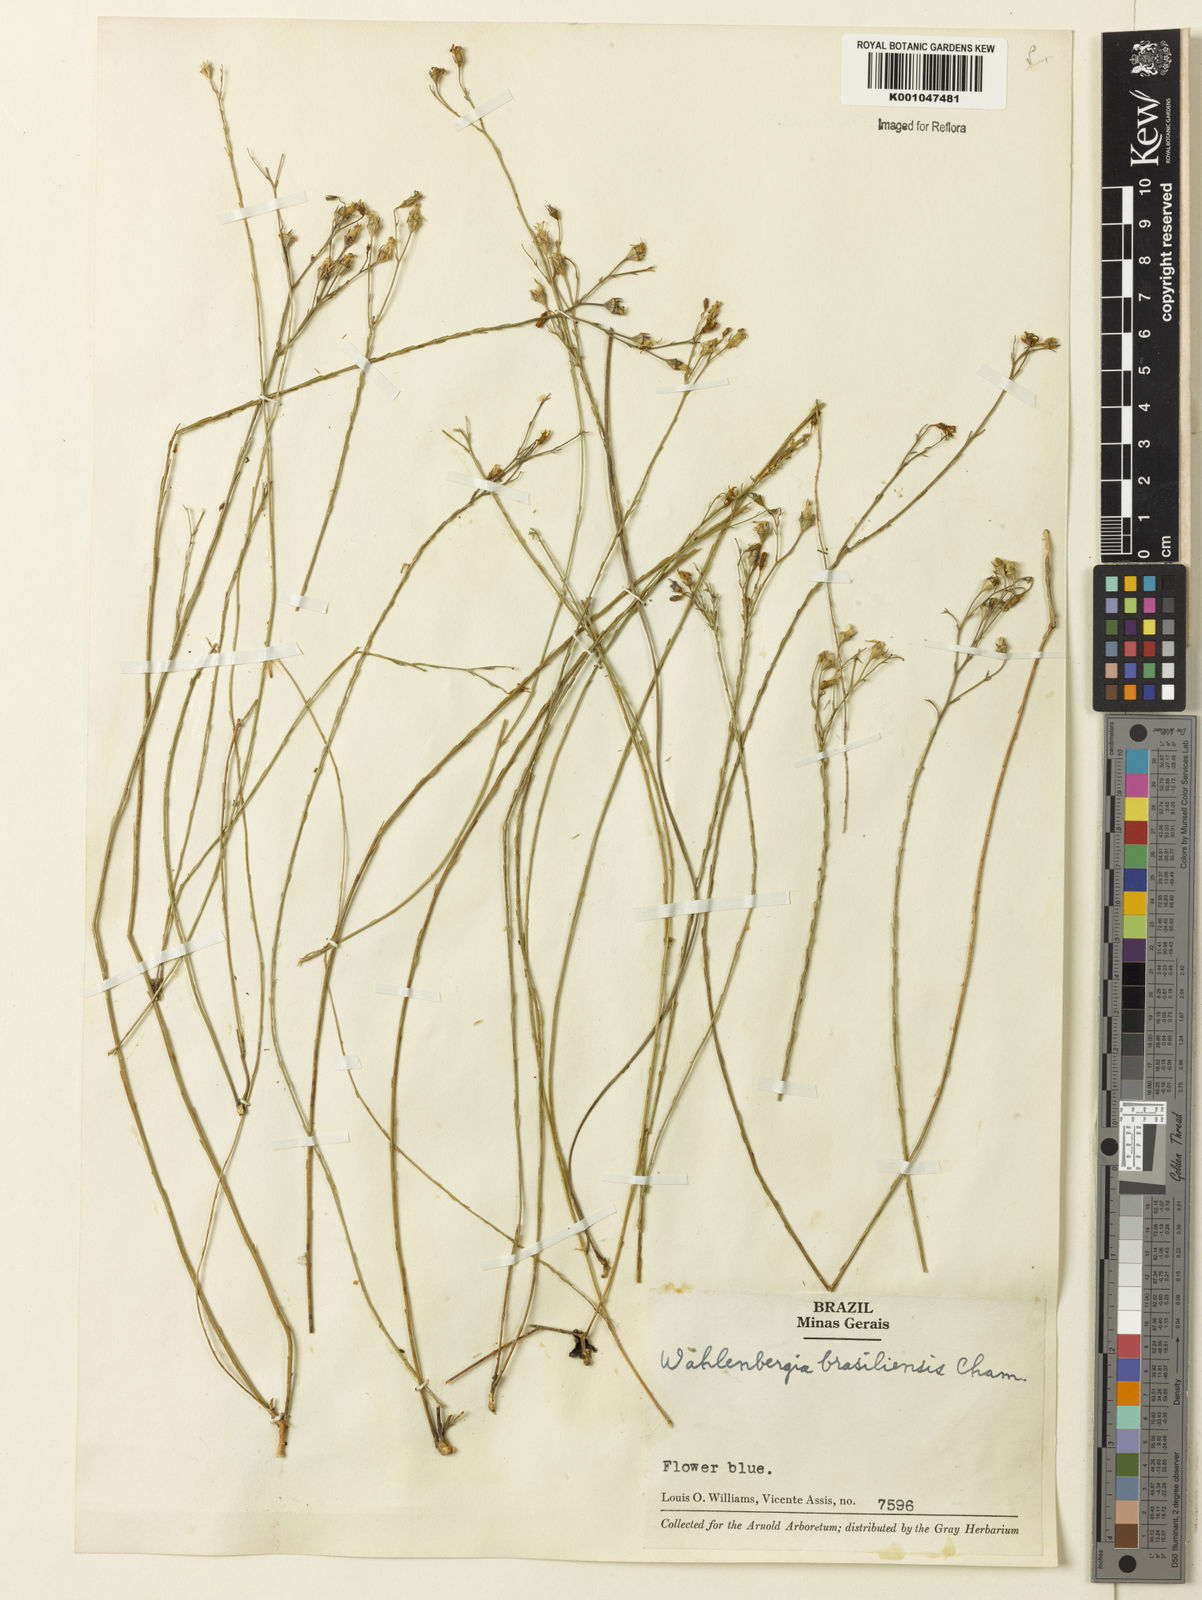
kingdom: Plantae
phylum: Tracheophyta
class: Magnoliopsida
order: Asterales
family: Campanulaceae
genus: Wahlenbergia
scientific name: Wahlenbergia brasiliensis
